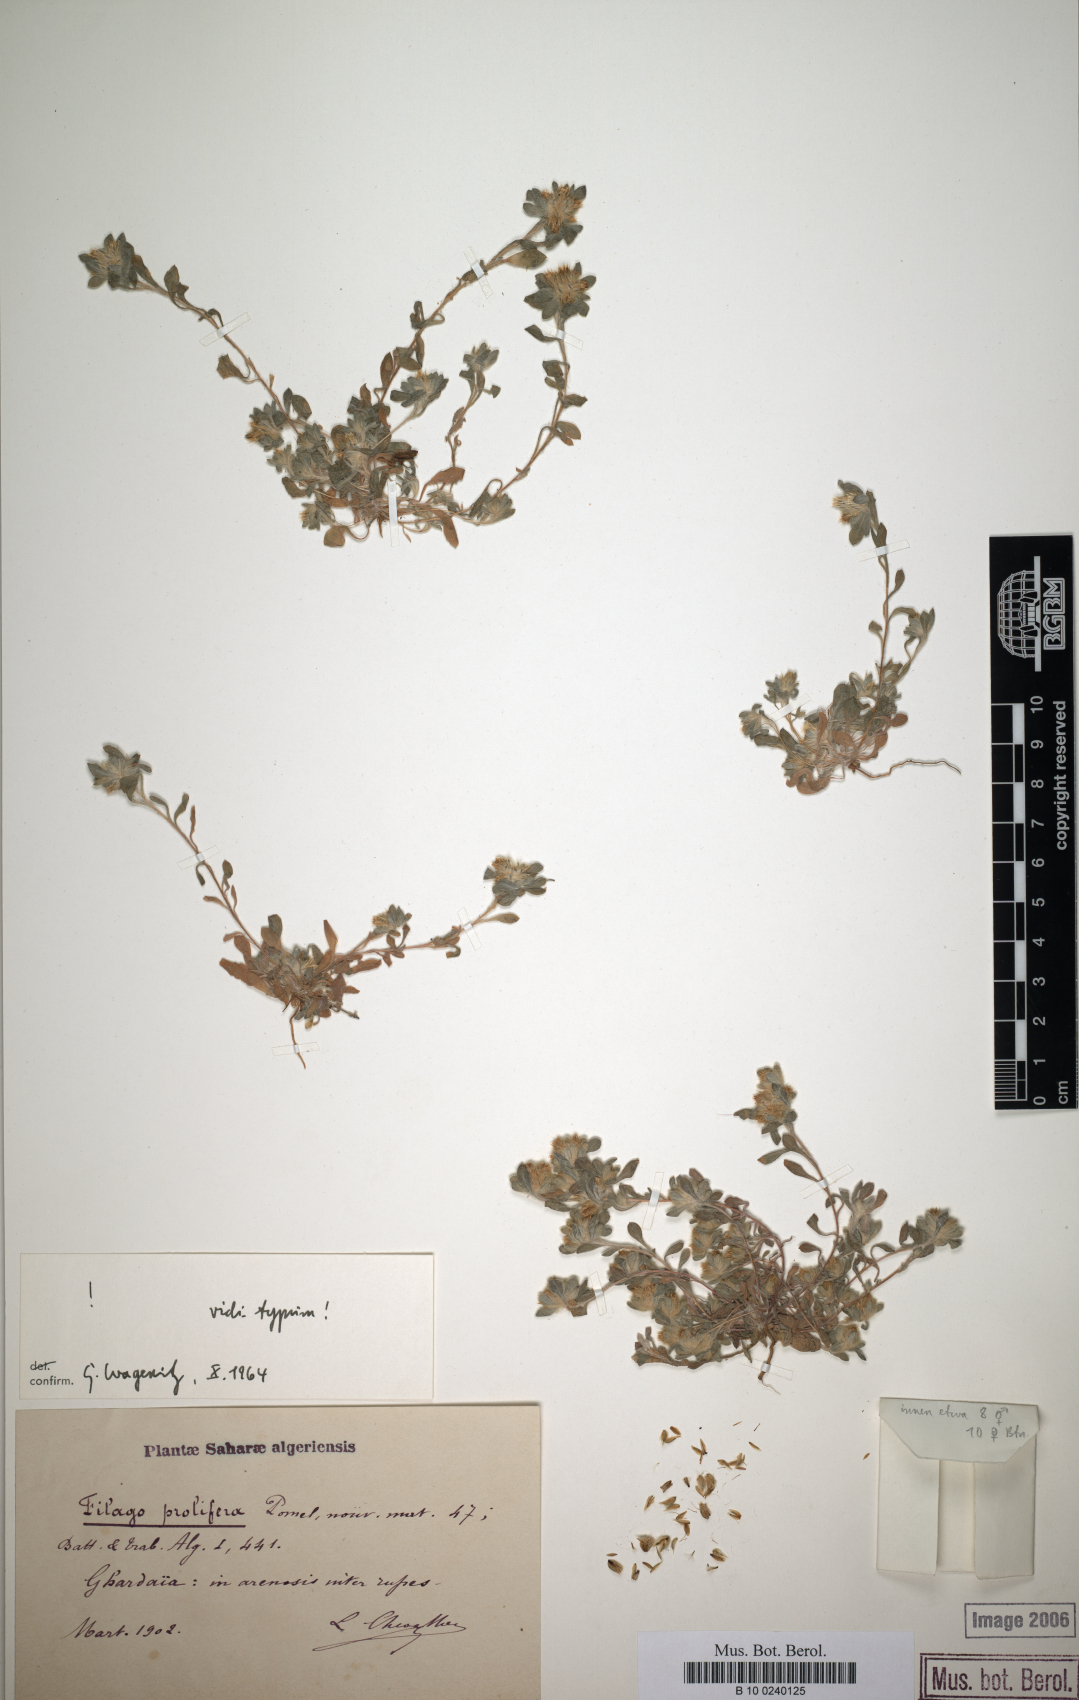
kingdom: Plantae
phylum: Tracheophyta
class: Magnoliopsida
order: Asterales
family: Asteraceae
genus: Filago
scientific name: Filago prolifera
